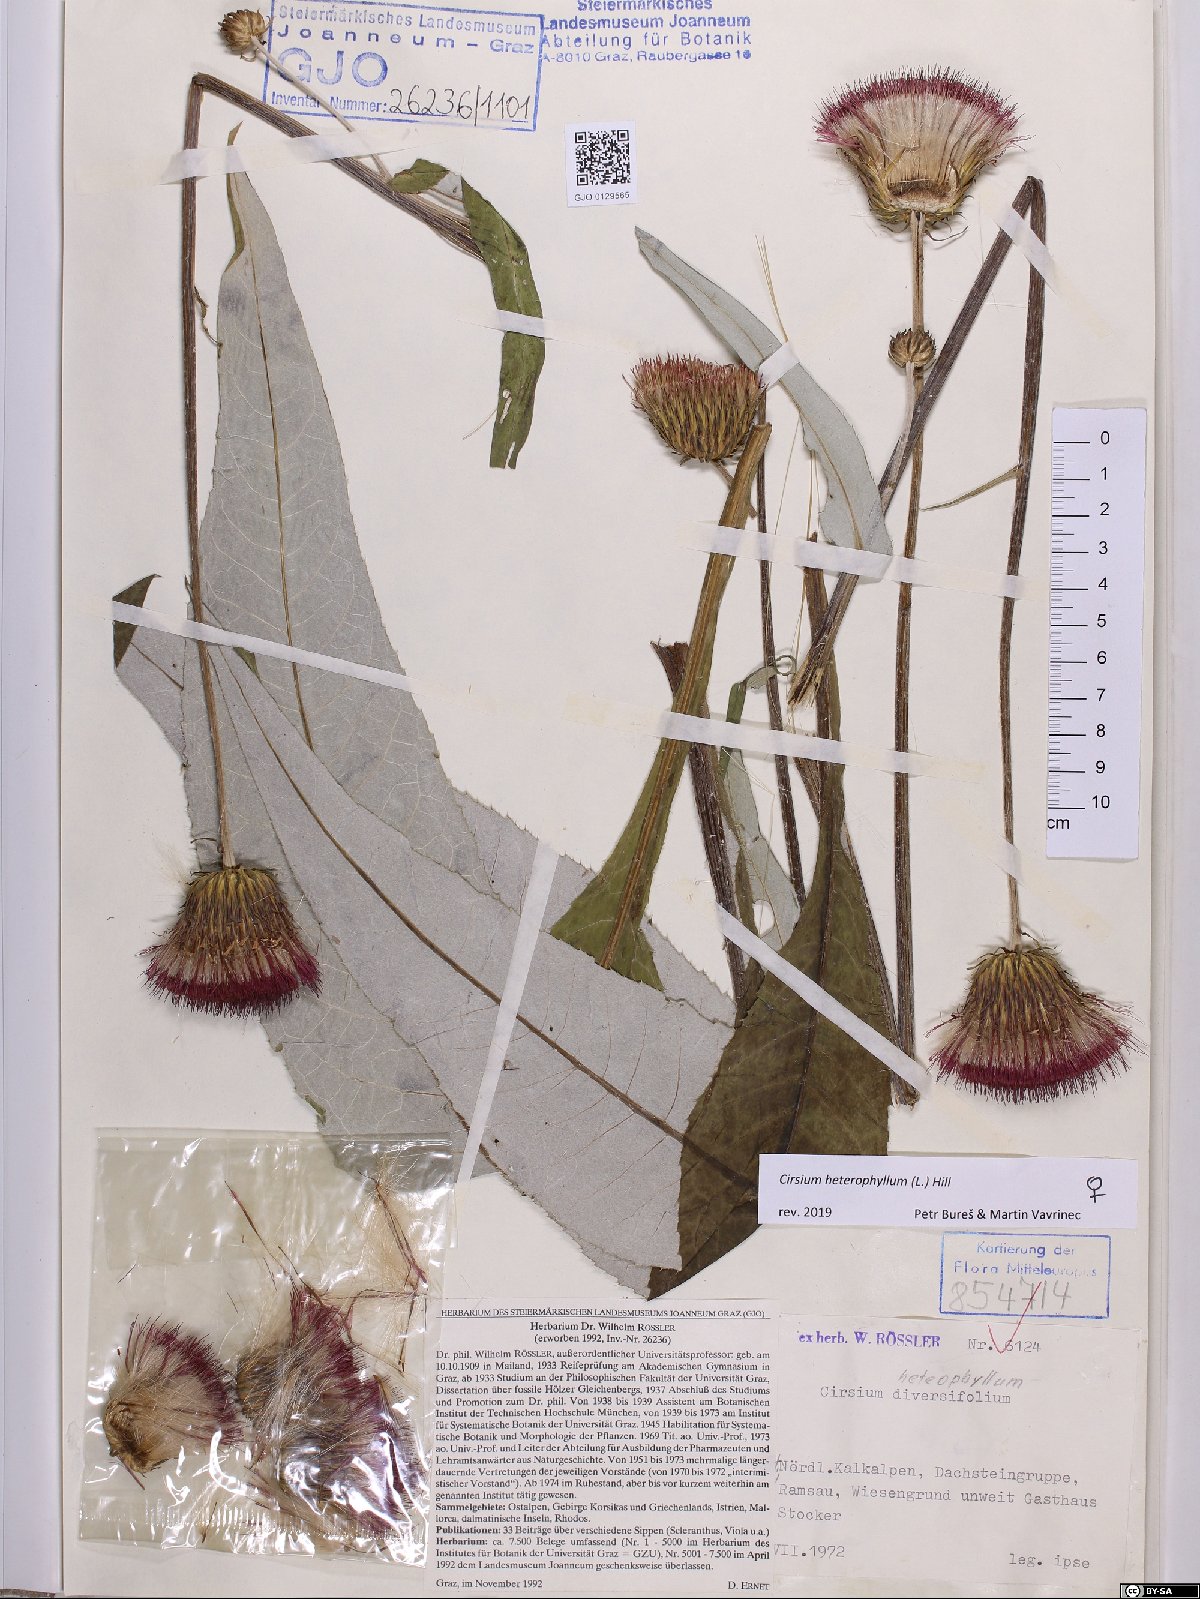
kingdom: Plantae
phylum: Tracheophyta
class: Magnoliopsida
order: Asterales
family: Asteraceae
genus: Cirsium
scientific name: Cirsium heterophyllum
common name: Melancholy thistle
